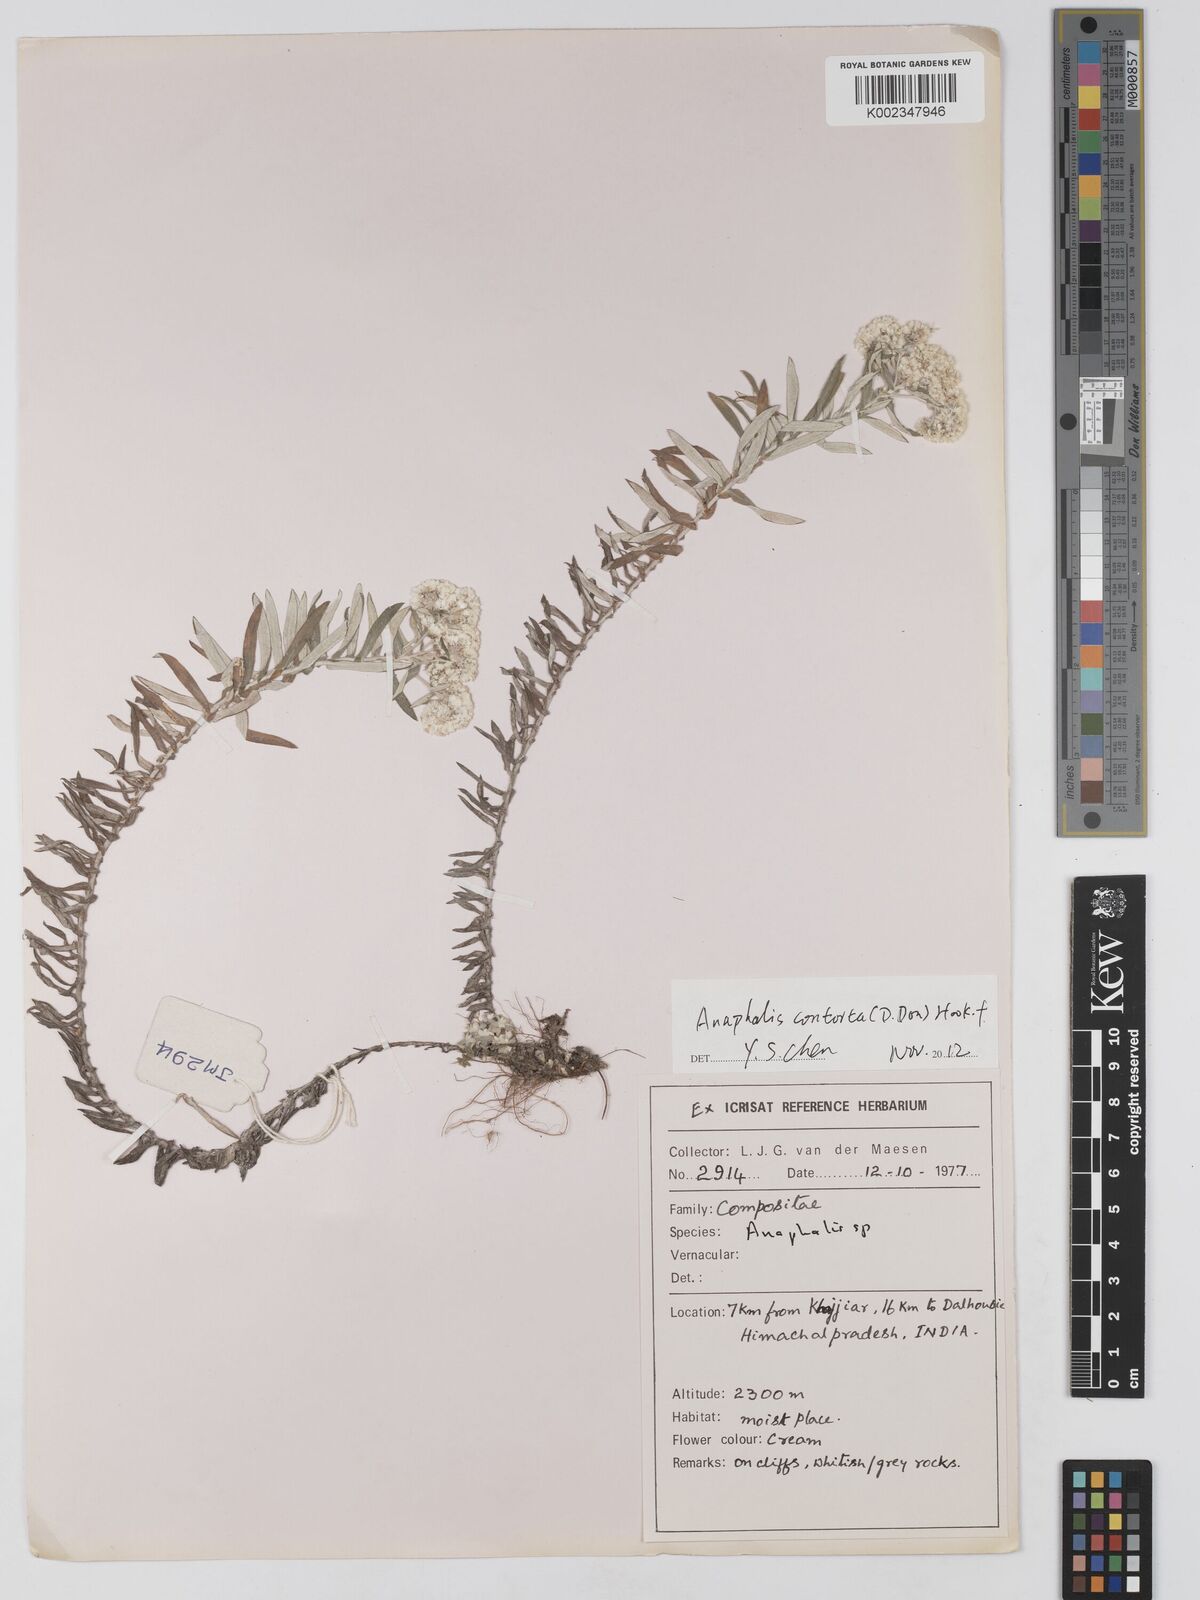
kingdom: Plantae
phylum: Tracheophyta
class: Magnoliopsida
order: Asterales
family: Asteraceae
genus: Anaphalis
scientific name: Anaphalis leptophylla
